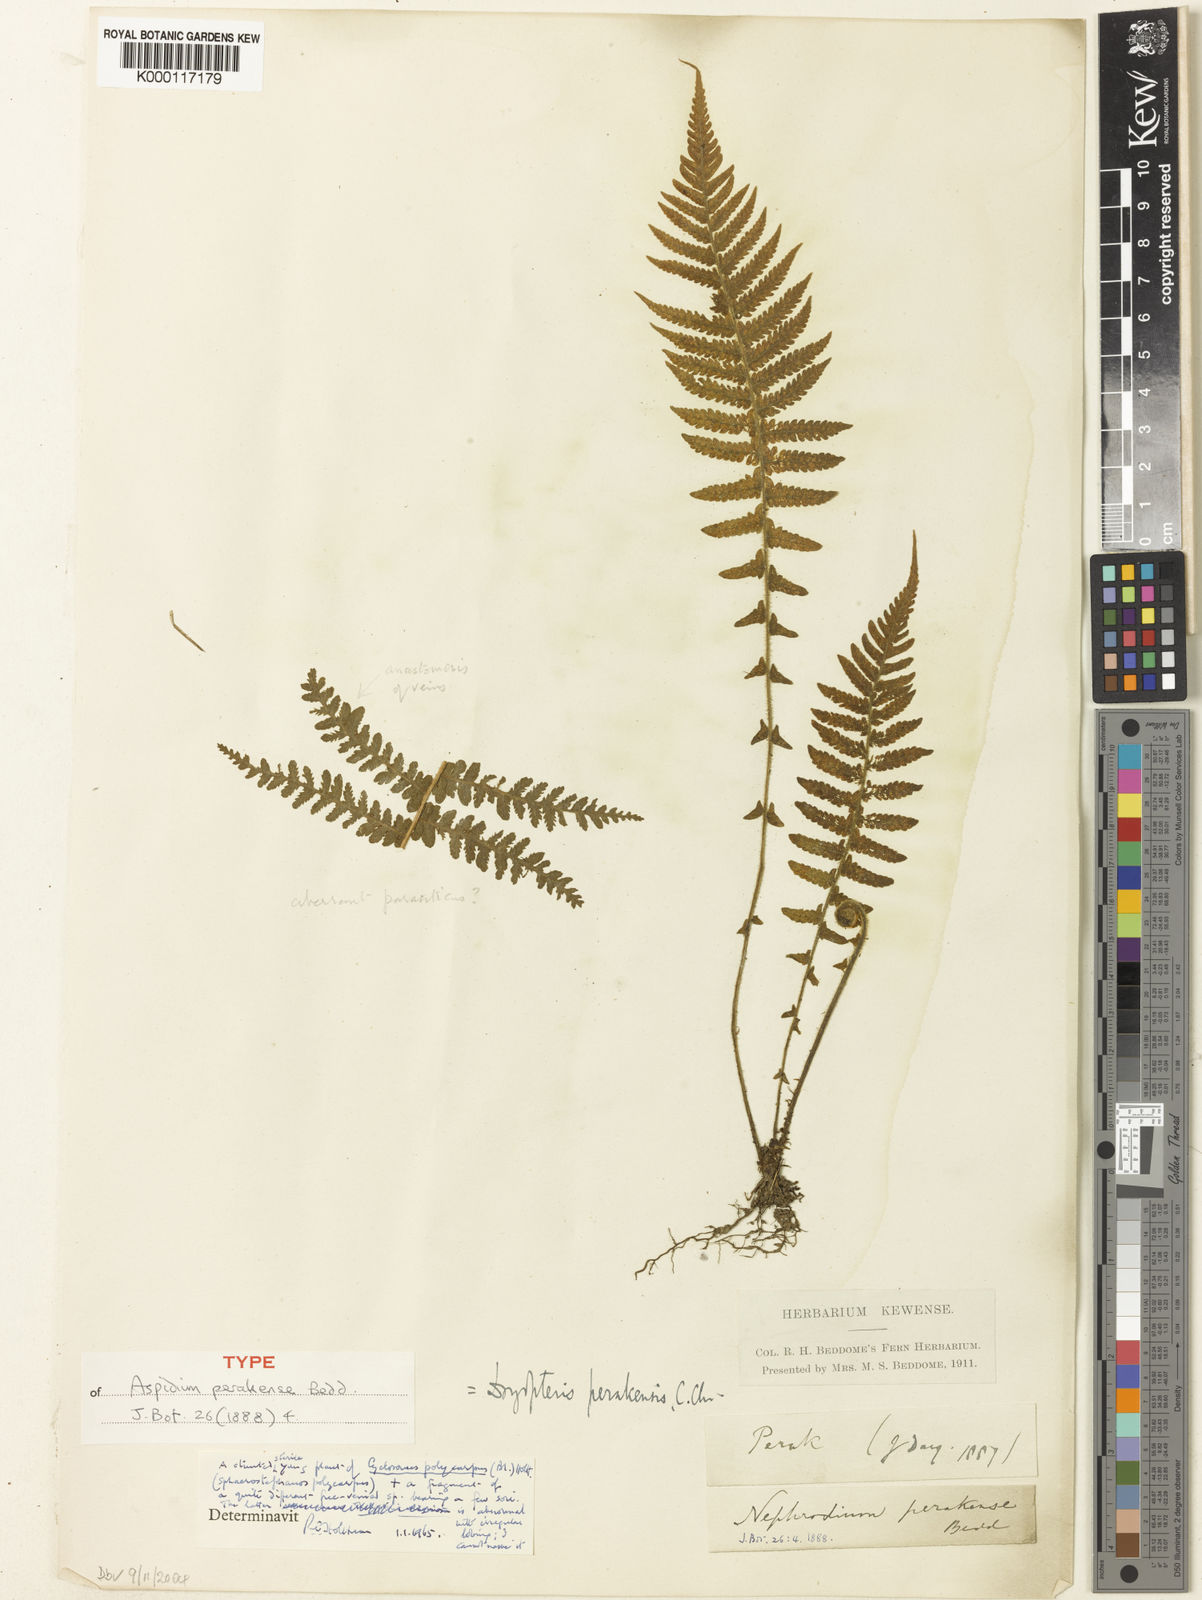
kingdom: Plantae
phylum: Tracheophyta
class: Polypodiopsida
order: Polypodiales
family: Thelypteridaceae
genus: Sphaerostephanos
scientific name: Sphaerostephanos polycarpos
